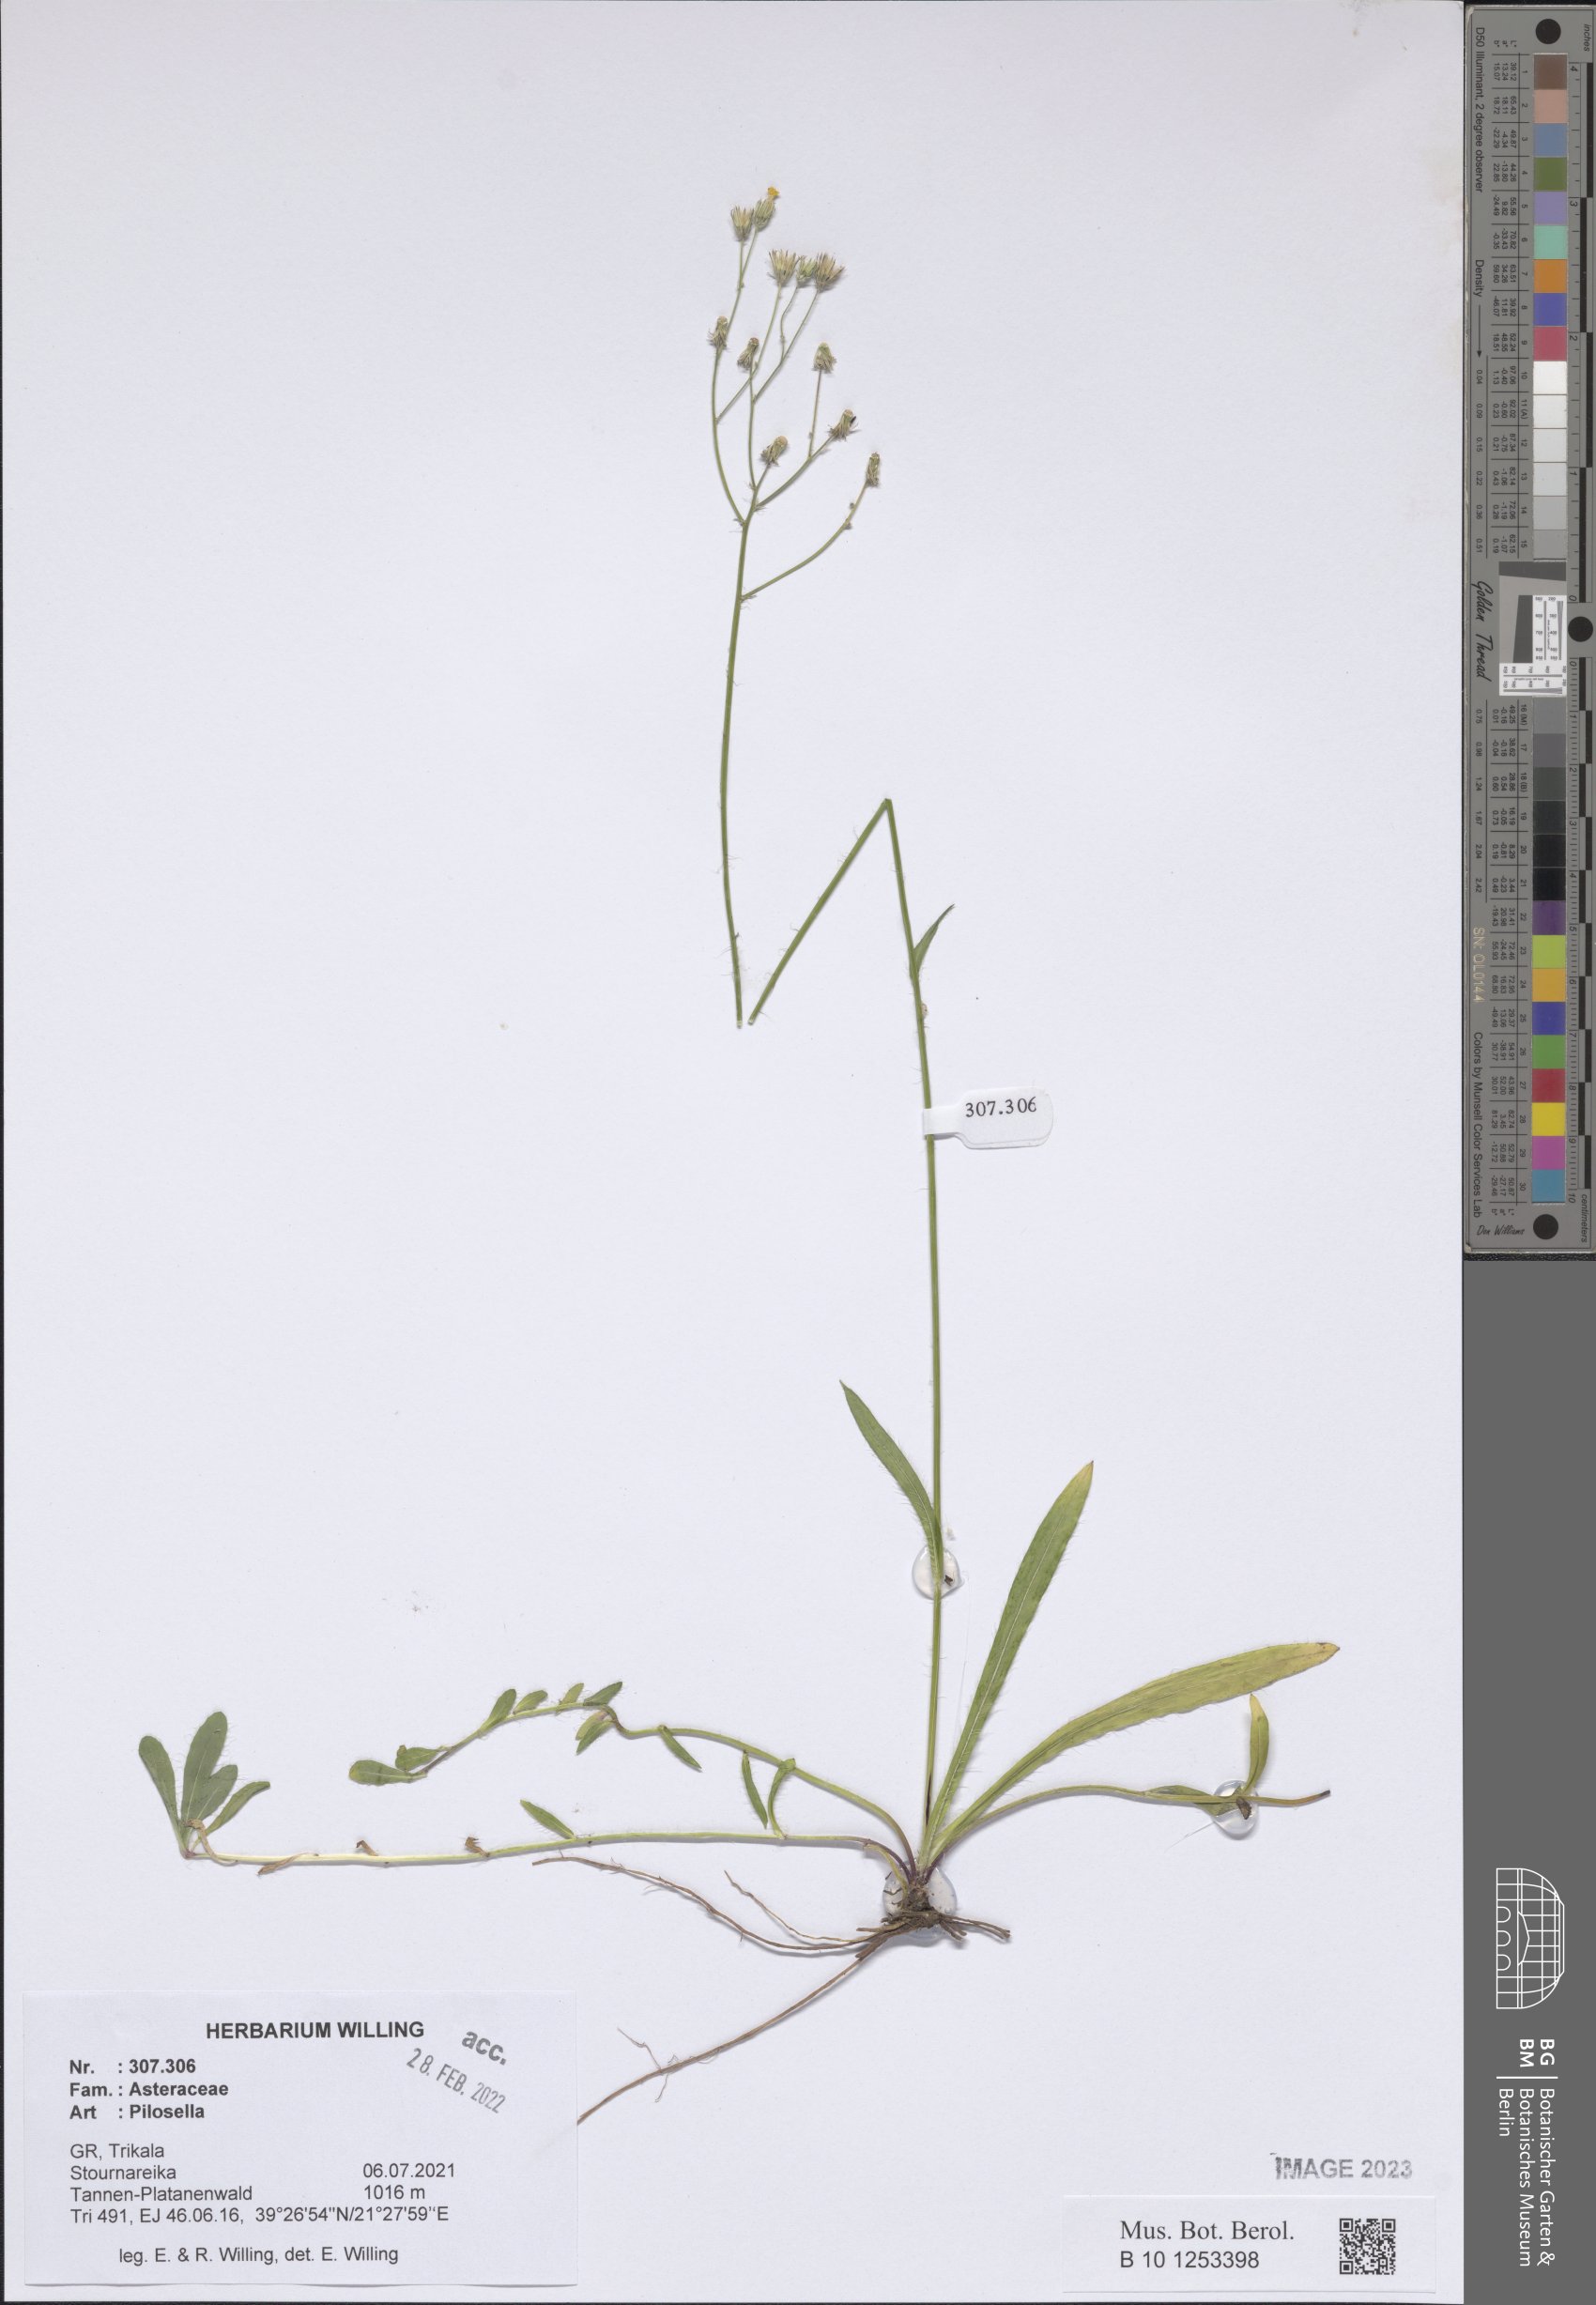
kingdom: Plantae
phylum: Tracheophyta
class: Magnoliopsida
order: Asterales
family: Asteraceae
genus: Pilosella
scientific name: Pilosella
